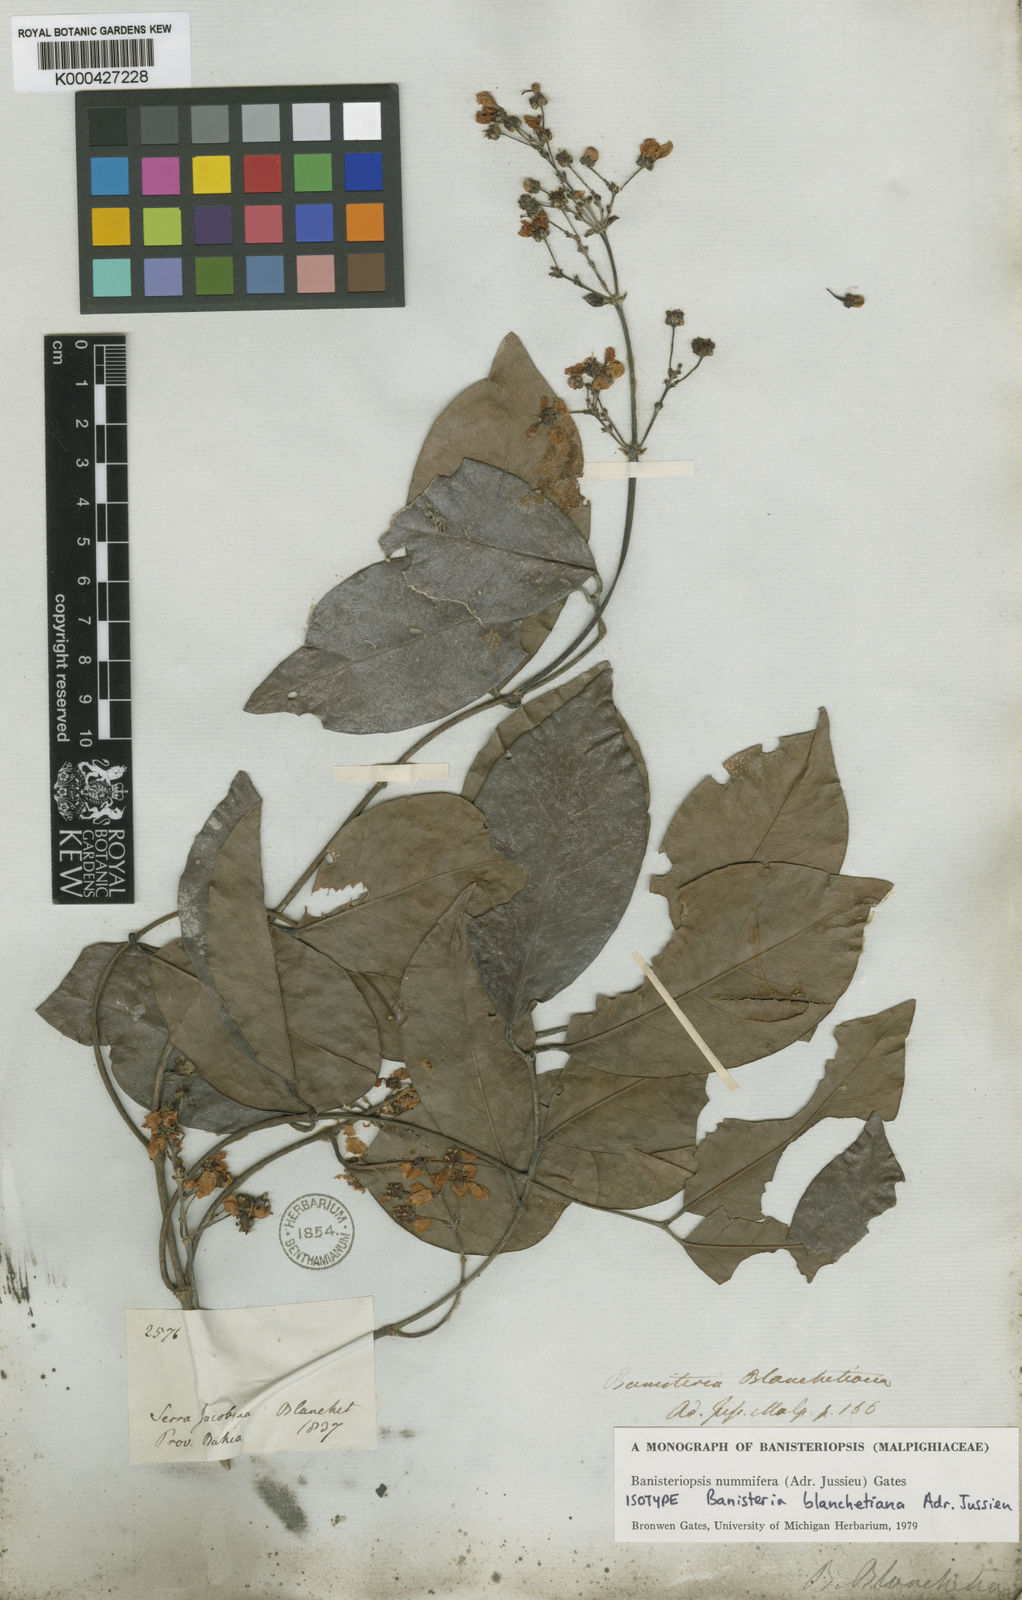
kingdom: Plantae
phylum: Tracheophyta
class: Magnoliopsida
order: Malpighiales
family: Malpighiaceae
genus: Banisteriopsis
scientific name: Banisteriopsis nummifera
